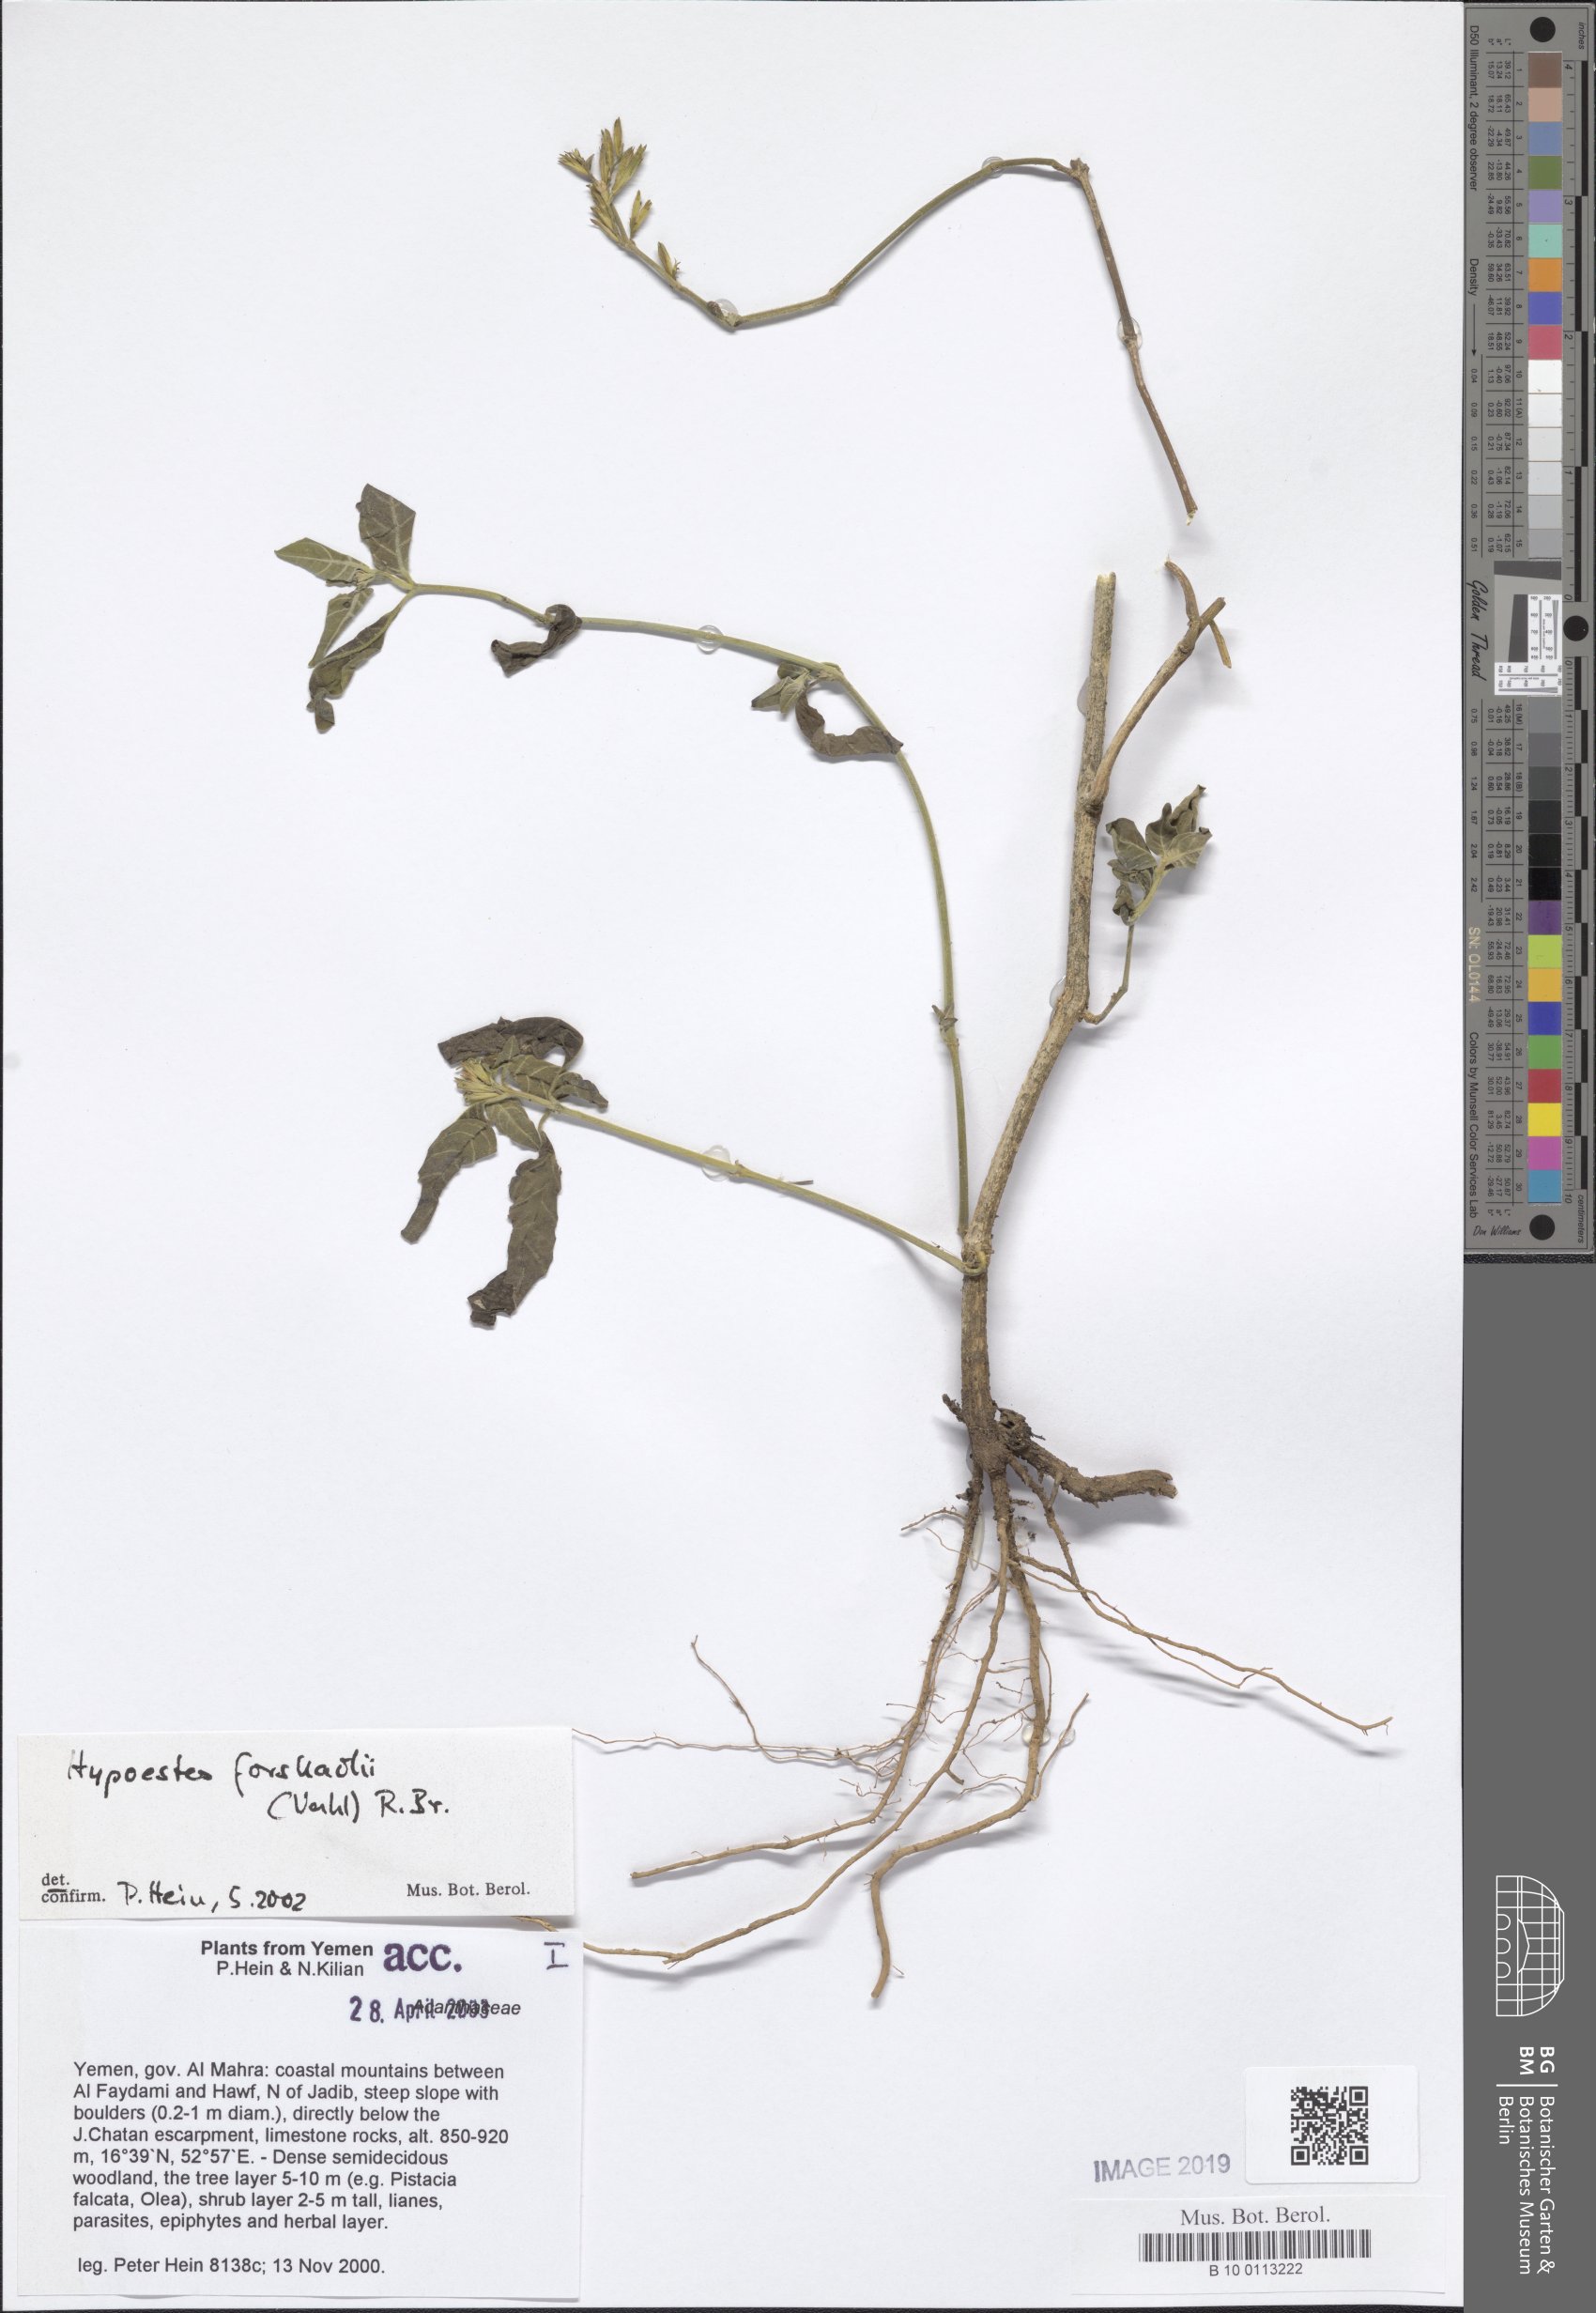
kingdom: Plantae
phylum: Tracheophyta
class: Magnoliopsida
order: Lamiales
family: Acanthaceae
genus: Hypoestes
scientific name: Hypoestes forskaolii
